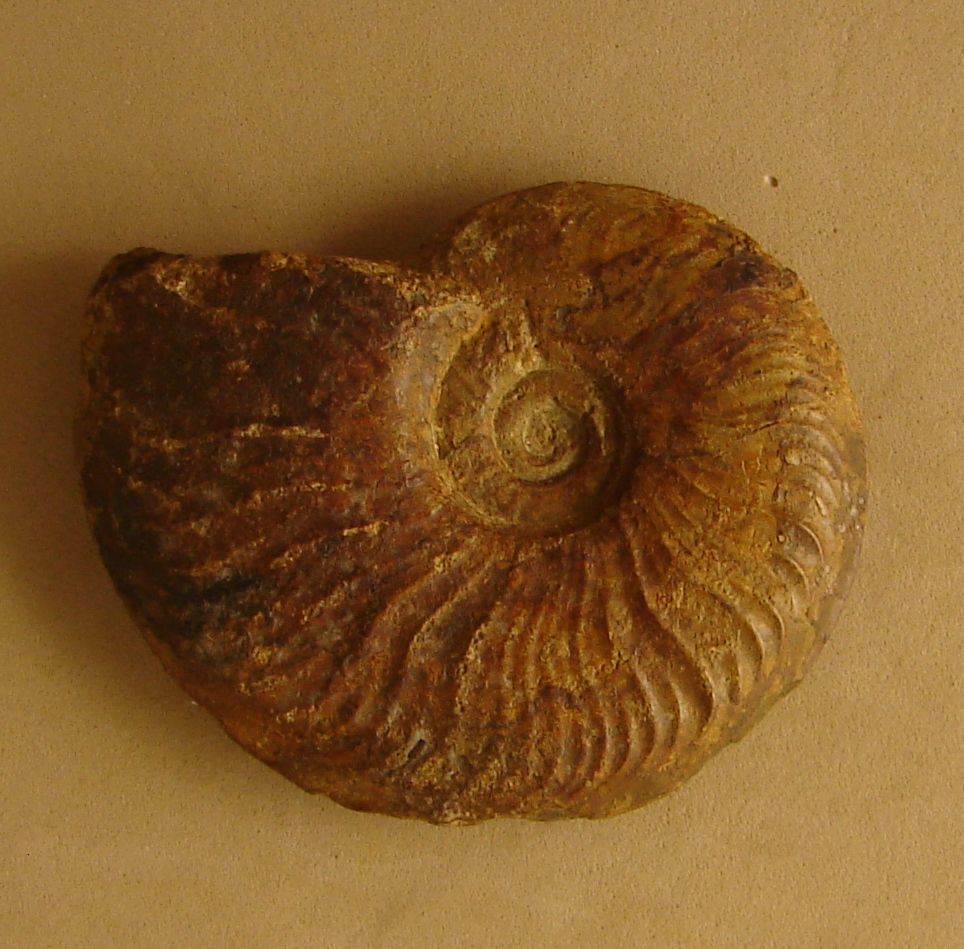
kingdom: Animalia
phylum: Mollusca
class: Cephalopoda
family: Hildoceratidae
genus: Pleydellia
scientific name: Pleydellia
